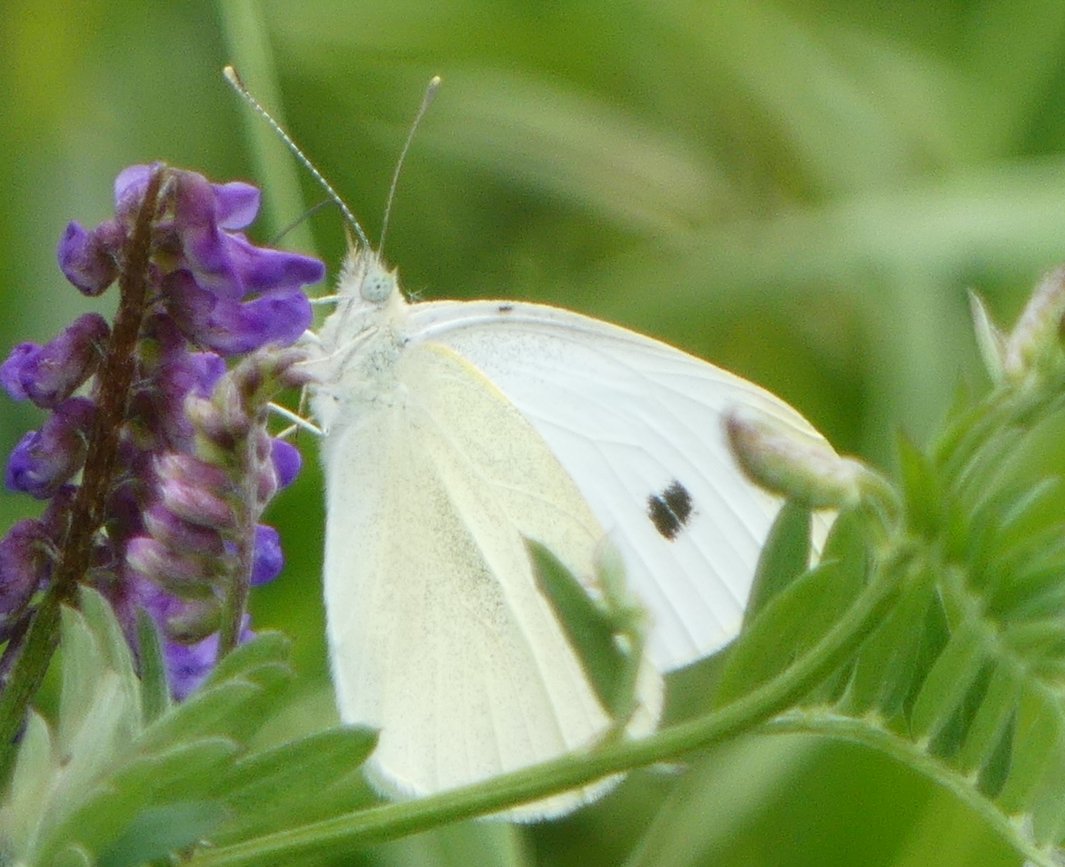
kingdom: Animalia
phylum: Arthropoda
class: Insecta
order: Lepidoptera
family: Pieridae
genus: Pieris
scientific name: Pieris rapae
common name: Cabbage White
